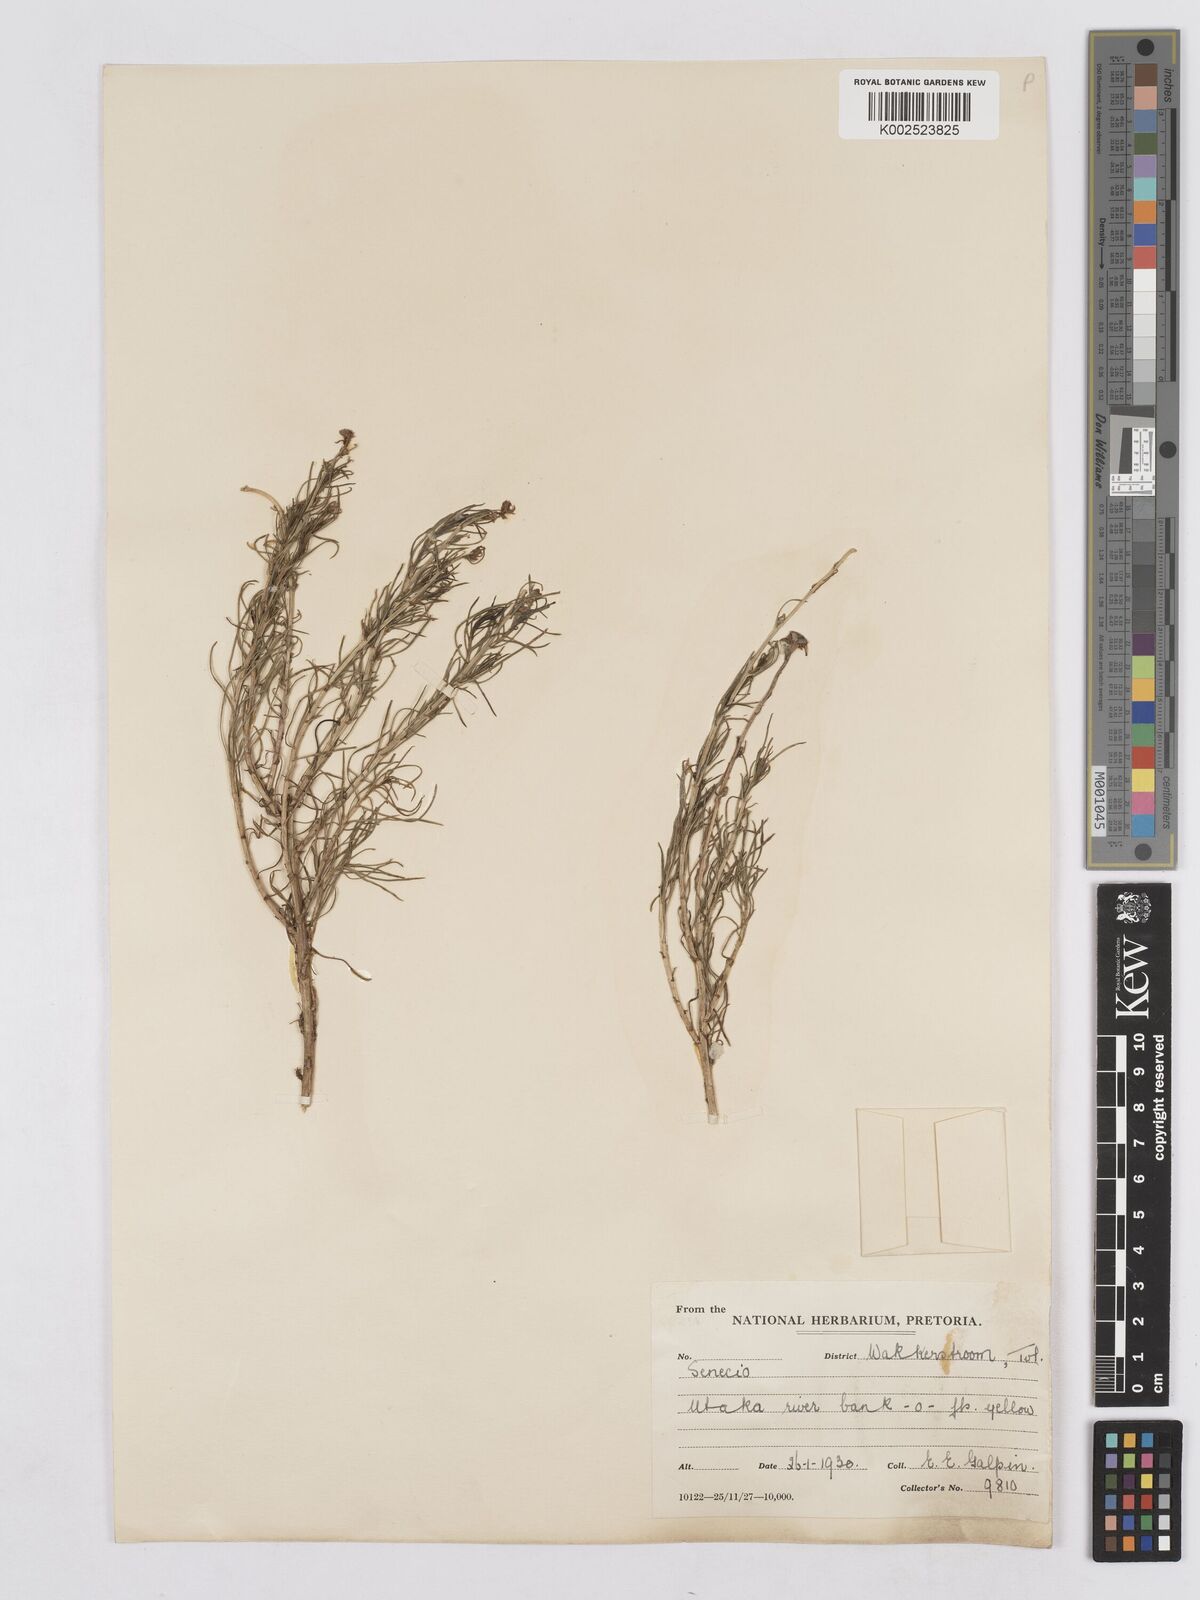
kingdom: Plantae
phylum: Tracheophyta
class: Magnoliopsida
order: Asterales
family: Asteraceae
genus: Senecio
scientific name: Senecio harveyanus
